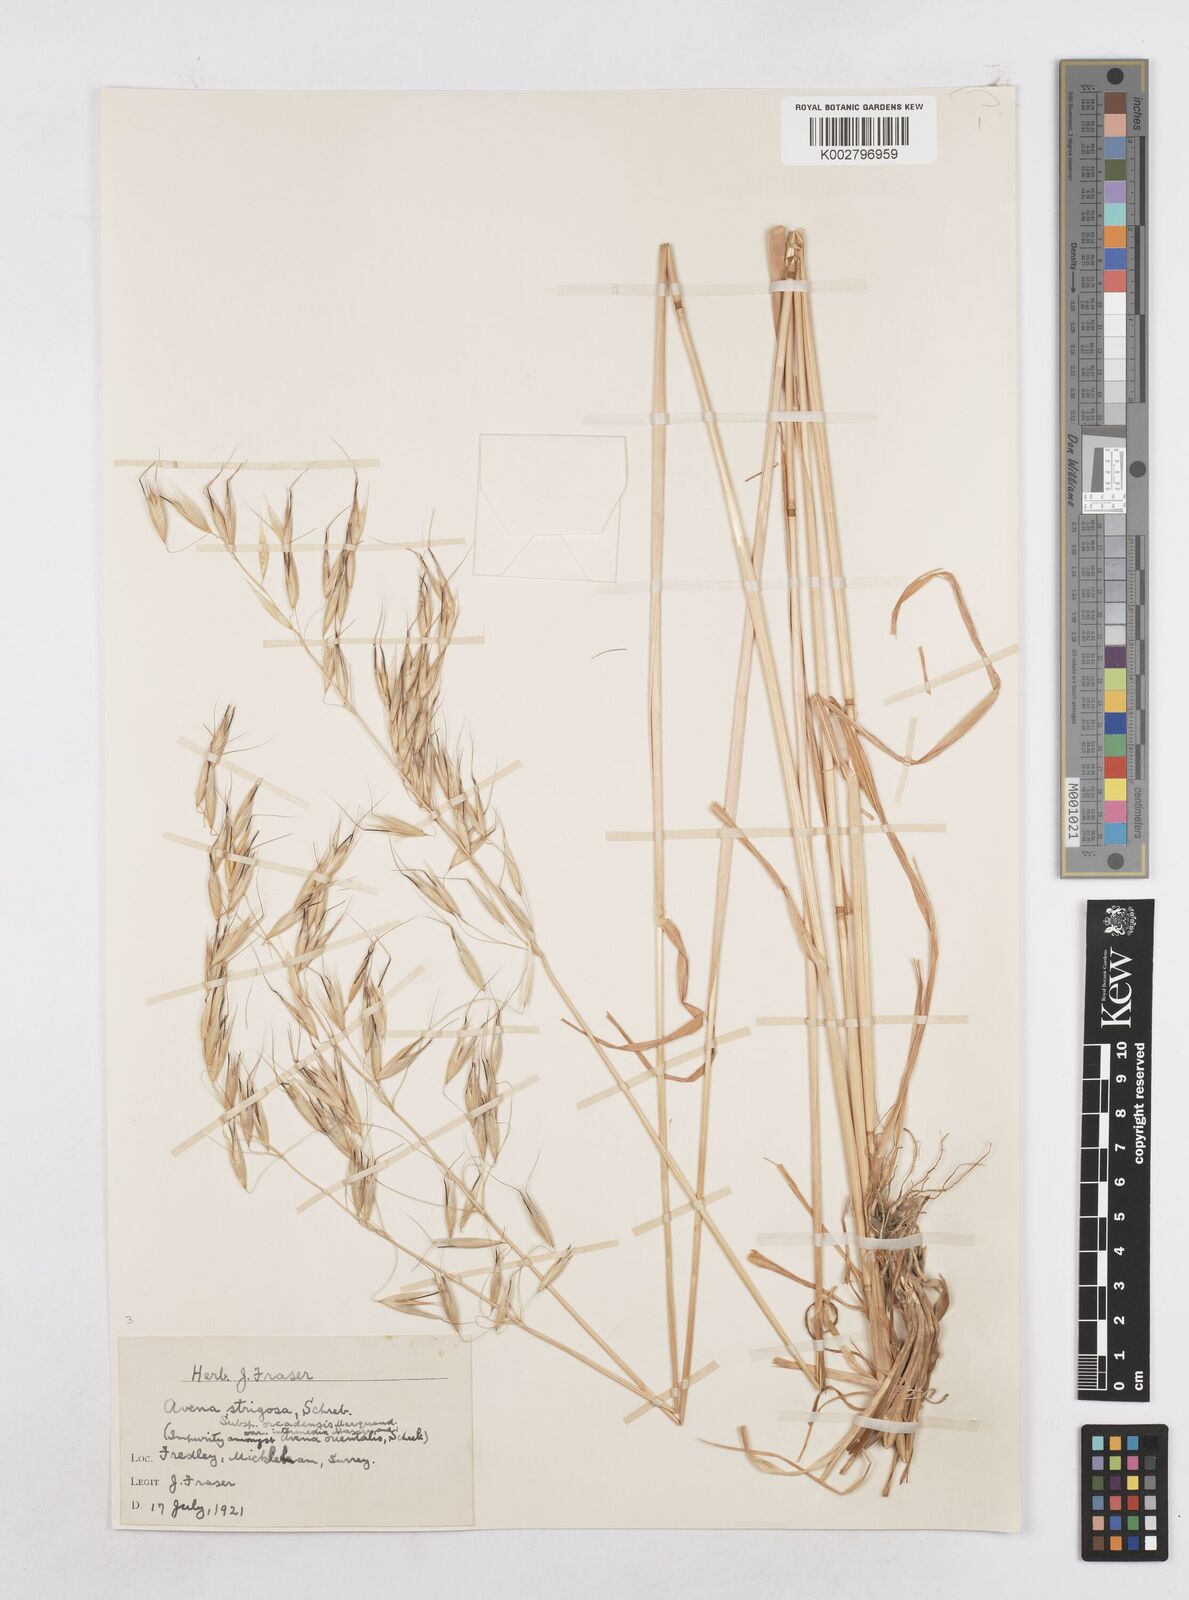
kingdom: Plantae
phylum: Tracheophyta
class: Liliopsida
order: Poales
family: Poaceae
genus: Avena
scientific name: Avena strigosa
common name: Bristle oat
